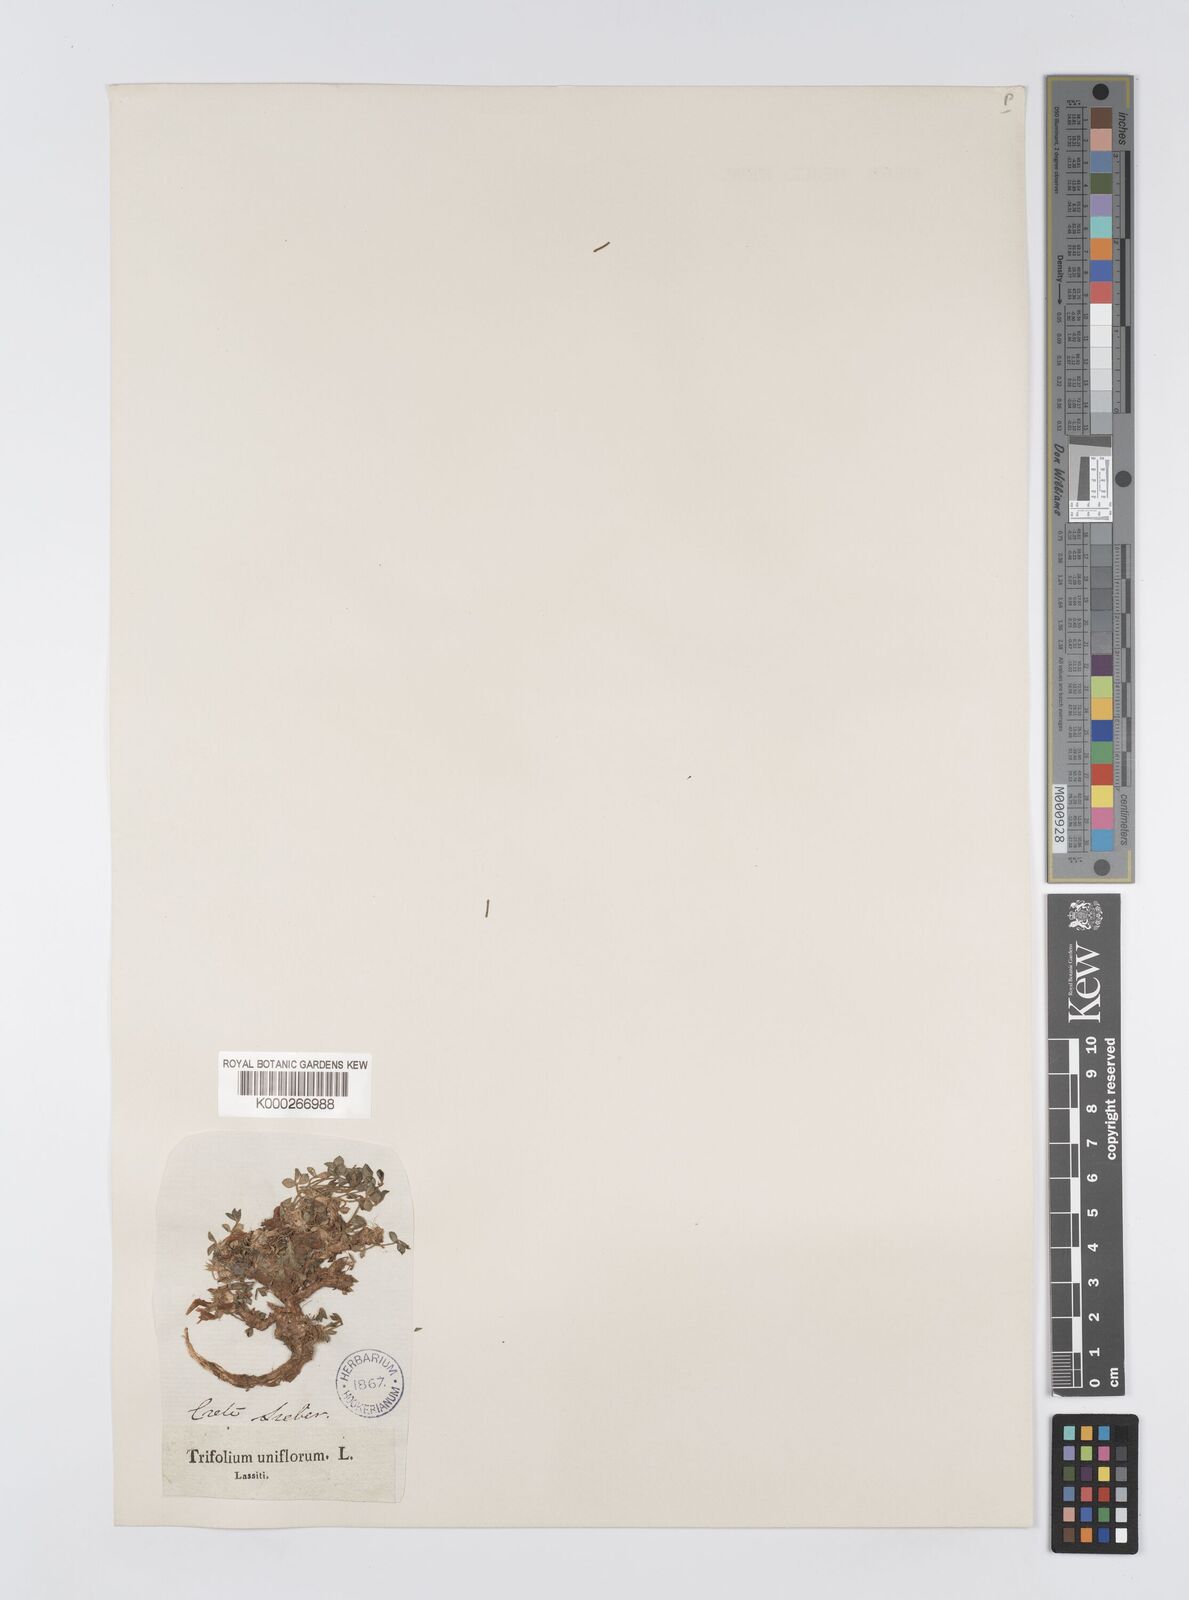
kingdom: Plantae
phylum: Tracheophyta
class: Magnoliopsida
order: Fabales
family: Fabaceae
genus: Trifolium
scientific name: Trifolium uniflorum
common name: One-flower clover
